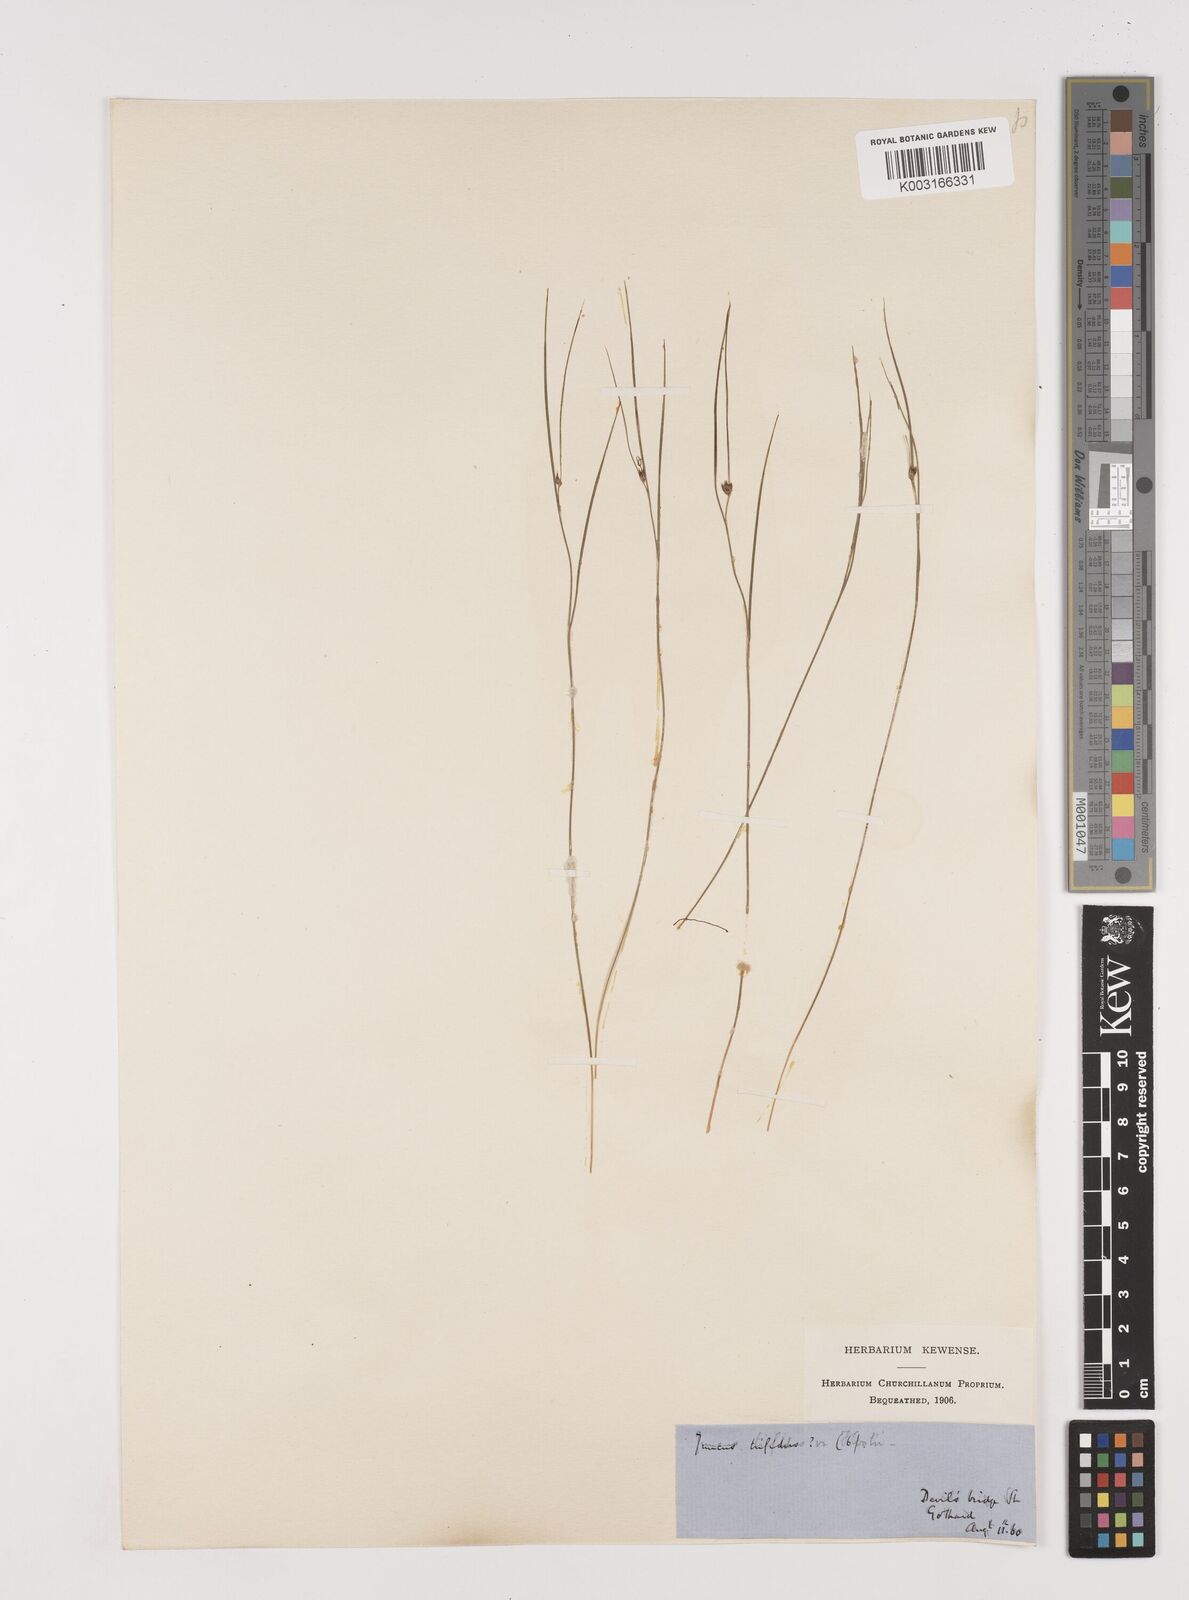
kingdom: Plantae
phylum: Tracheophyta
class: Liliopsida
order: Poales
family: Juncaceae
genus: Oreojuncus
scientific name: Oreojuncus trifidus
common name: Highland rush
